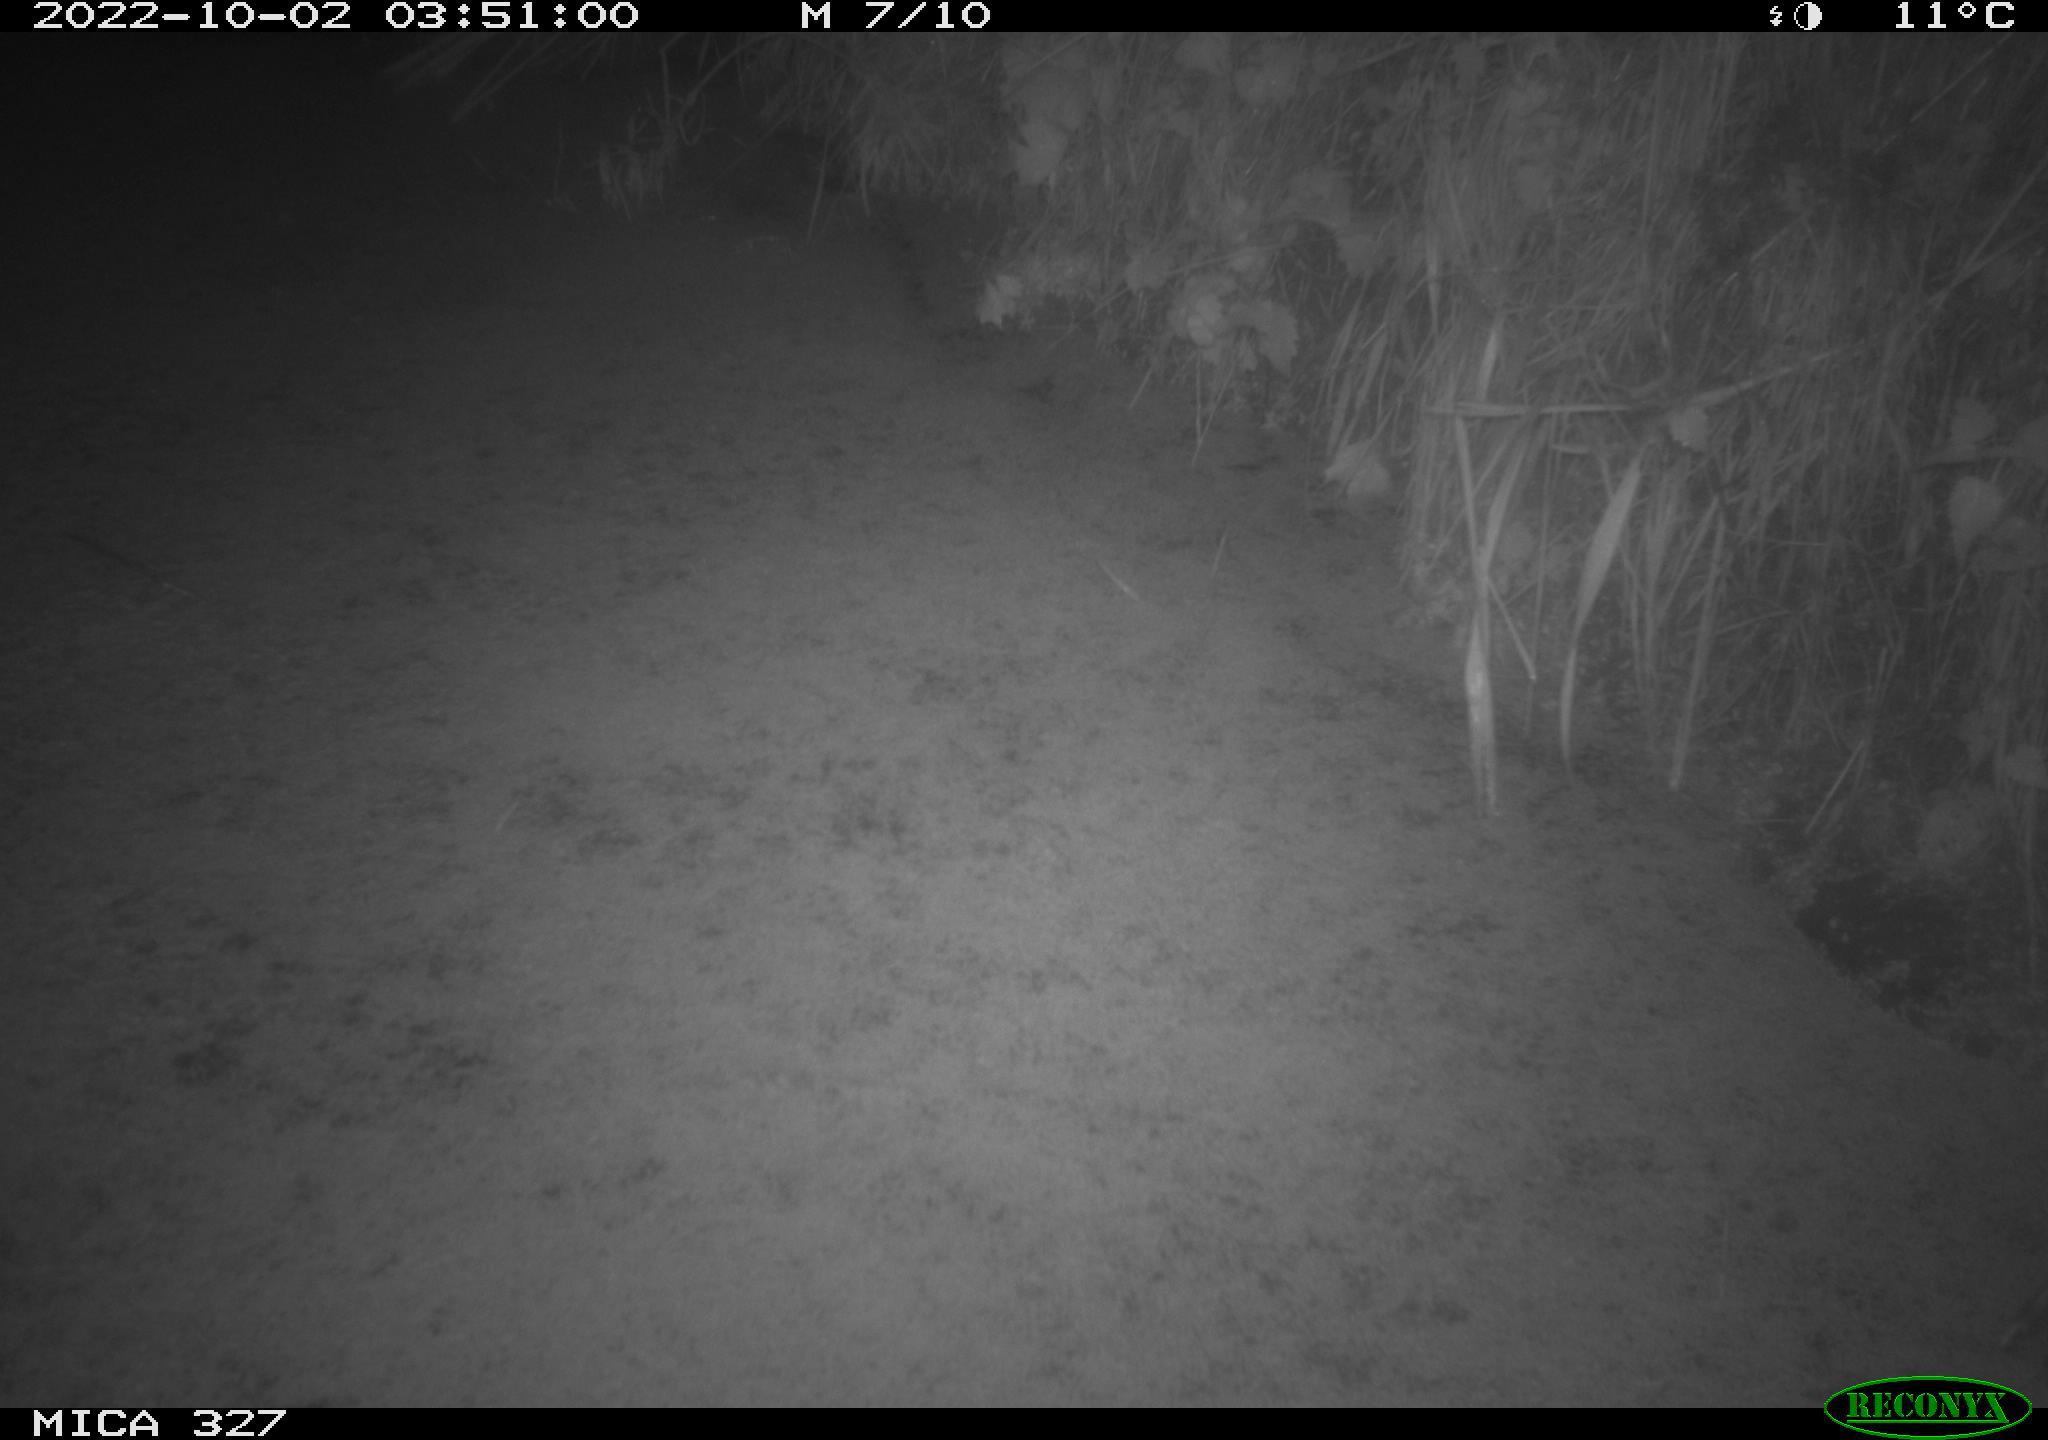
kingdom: Animalia
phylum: Chordata
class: Mammalia
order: Rodentia
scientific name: Rodentia
